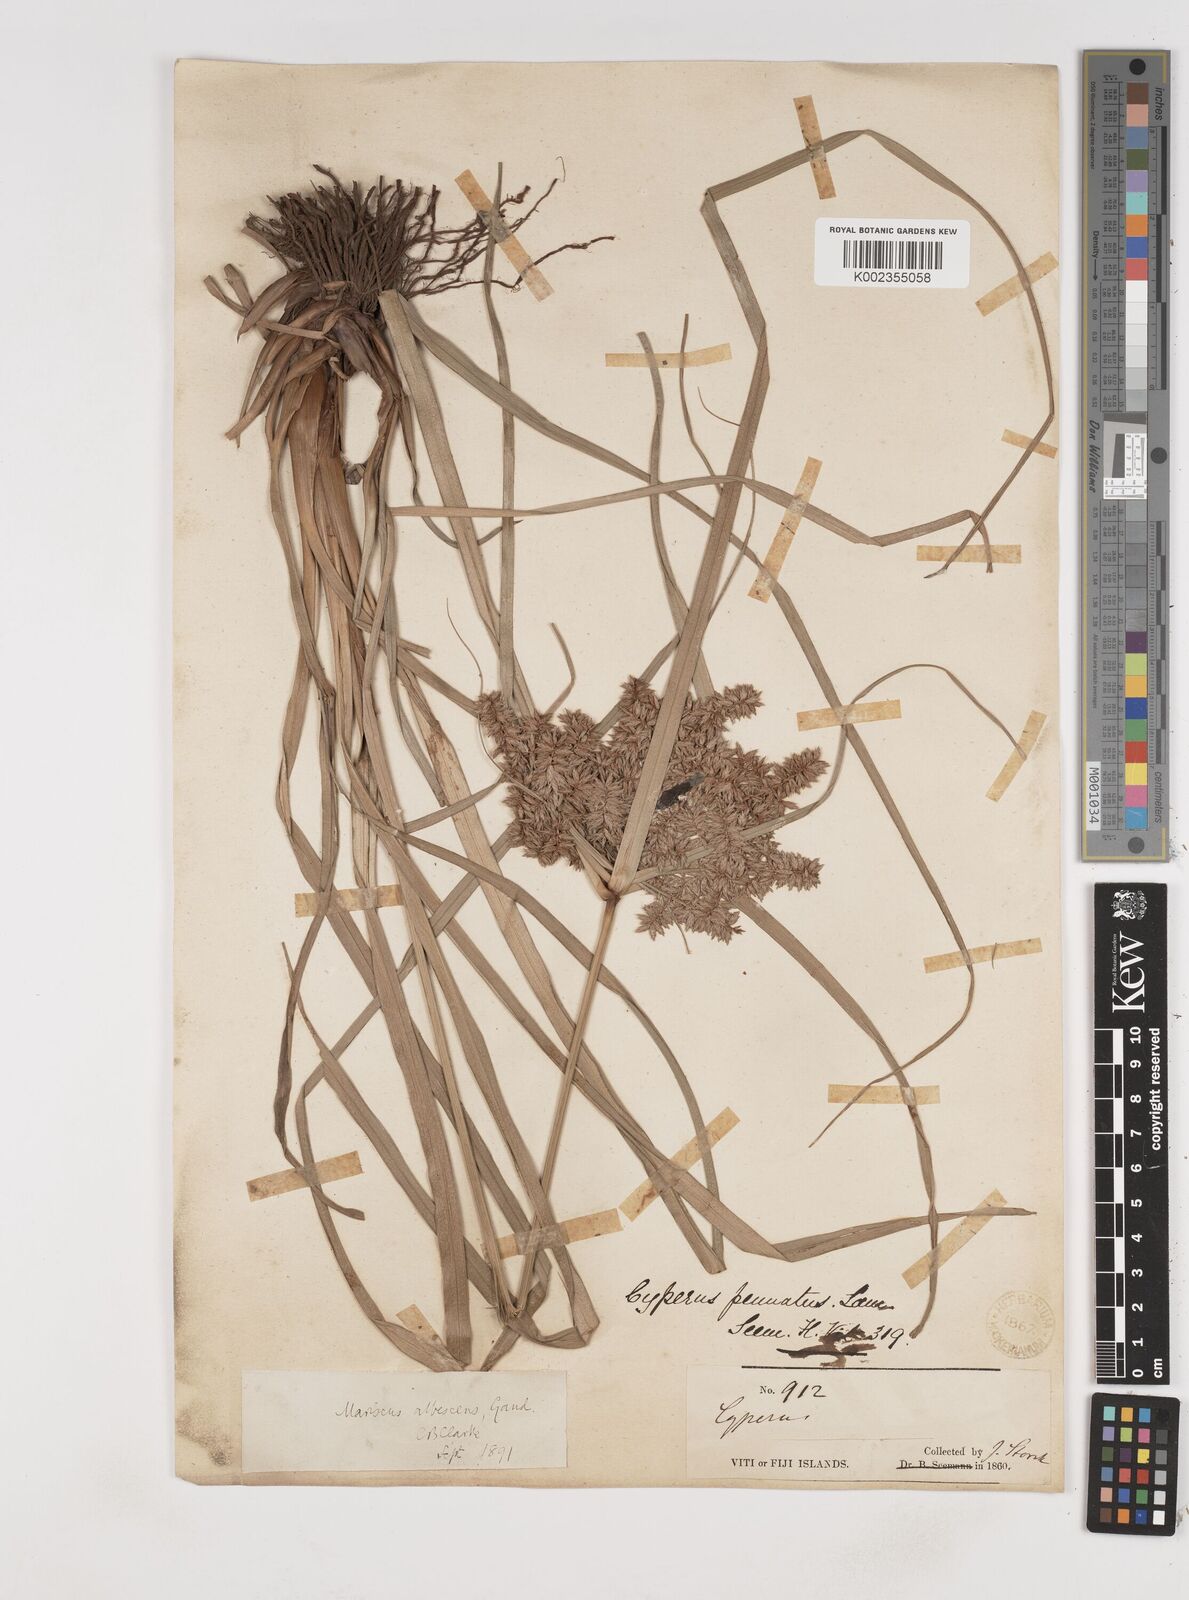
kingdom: Plantae
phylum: Tracheophyta
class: Liliopsida
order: Poales
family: Cyperaceae
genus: Cyperus
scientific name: Cyperus javanicus
